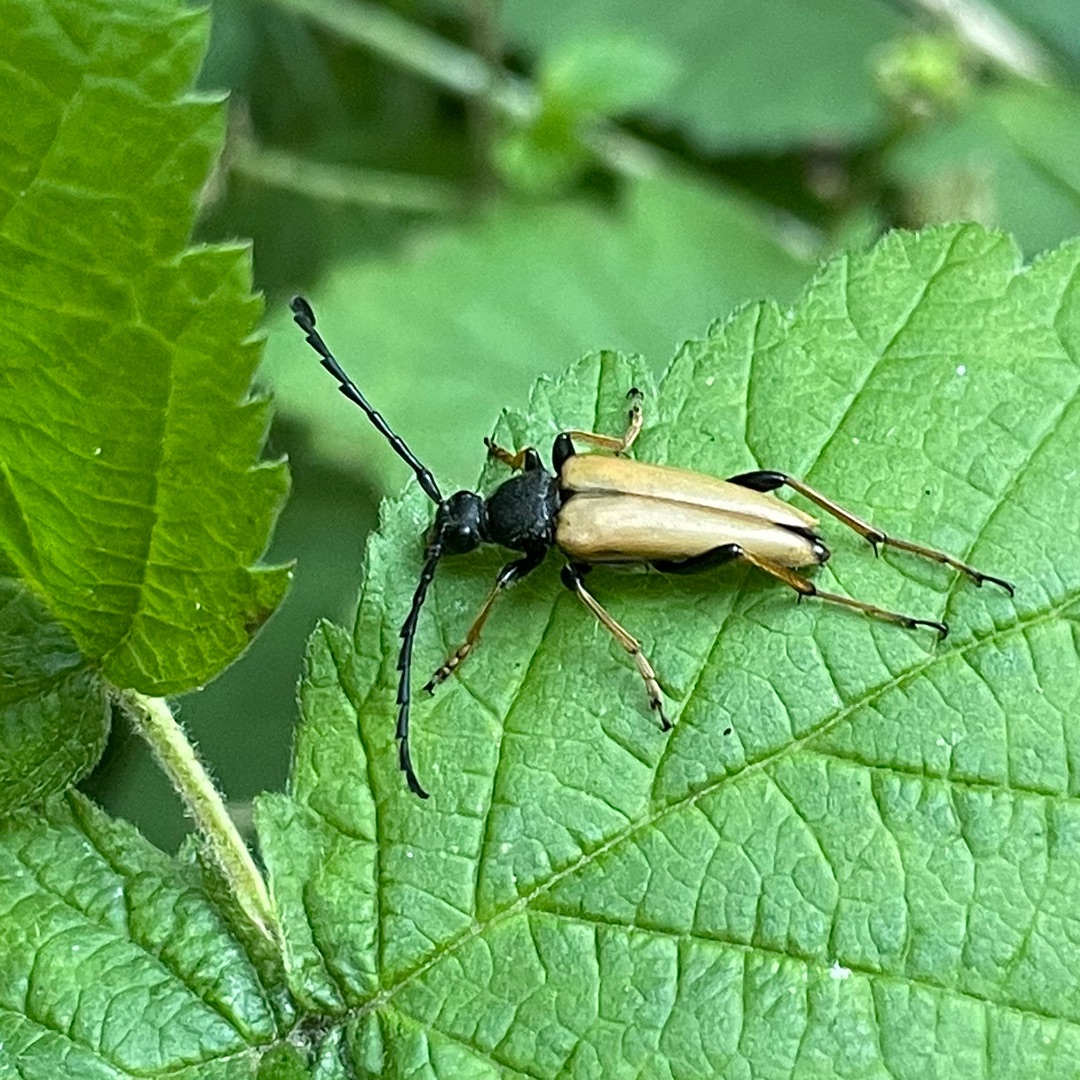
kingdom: Animalia
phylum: Arthropoda
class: Insecta
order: Coleoptera
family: Cerambycidae
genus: Stictoleptura
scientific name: Stictoleptura rubra
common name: Rød blomsterbuk
